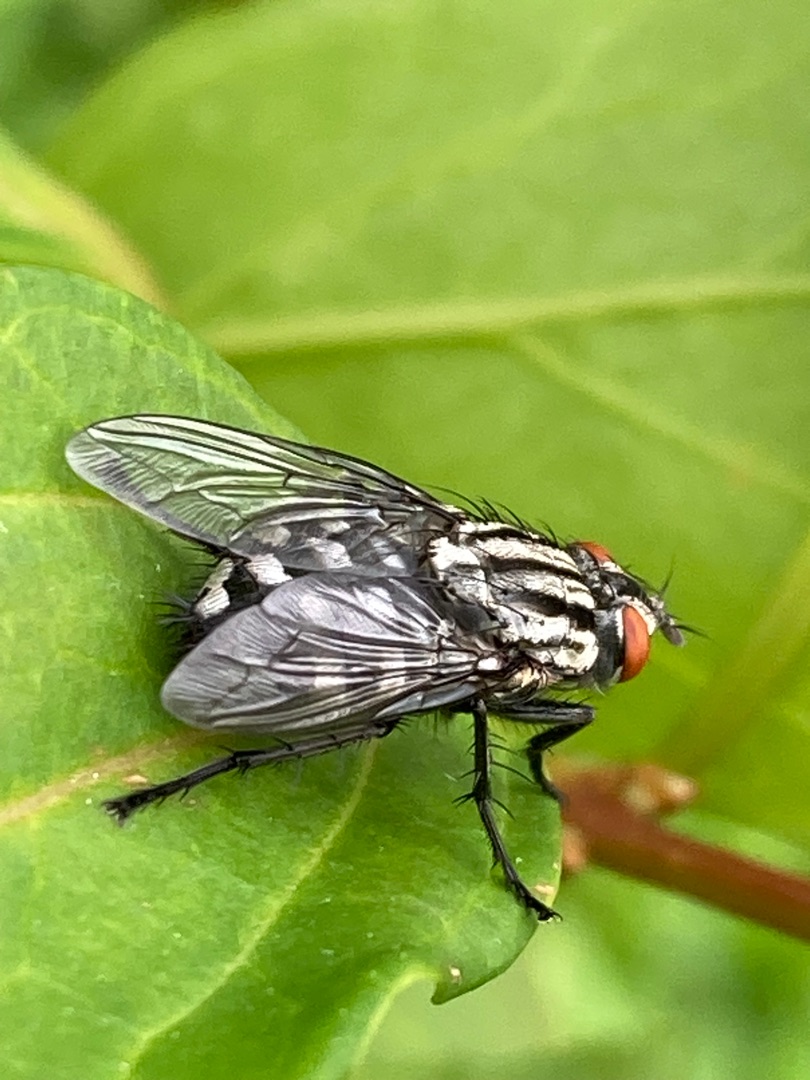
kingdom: Animalia
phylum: Arthropoda
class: Insecta
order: Diptera
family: Sarcophagidae
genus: Sarcophaga
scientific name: Sarcophaga
